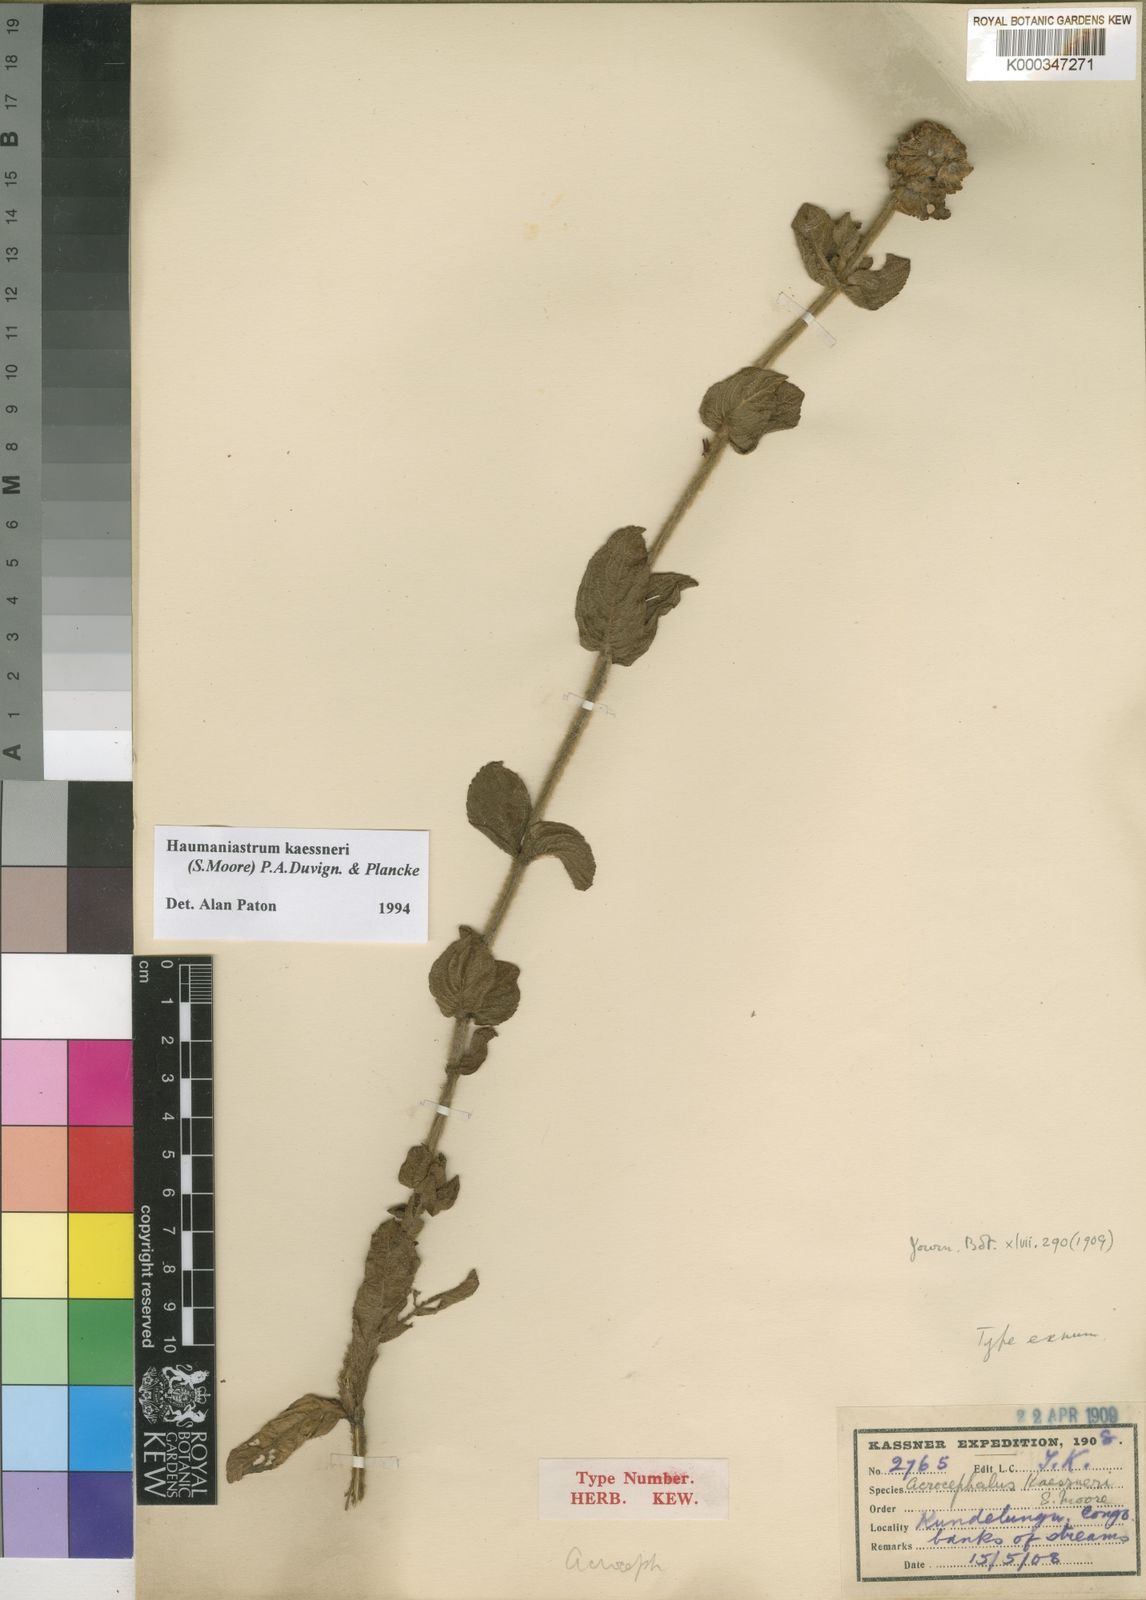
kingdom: Plantae
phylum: Tracheophyta
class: Magnoliopsida
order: Lamiales
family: Lamiaceae
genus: Haumaniastrum
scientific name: Haumaniastrum kaessneri
